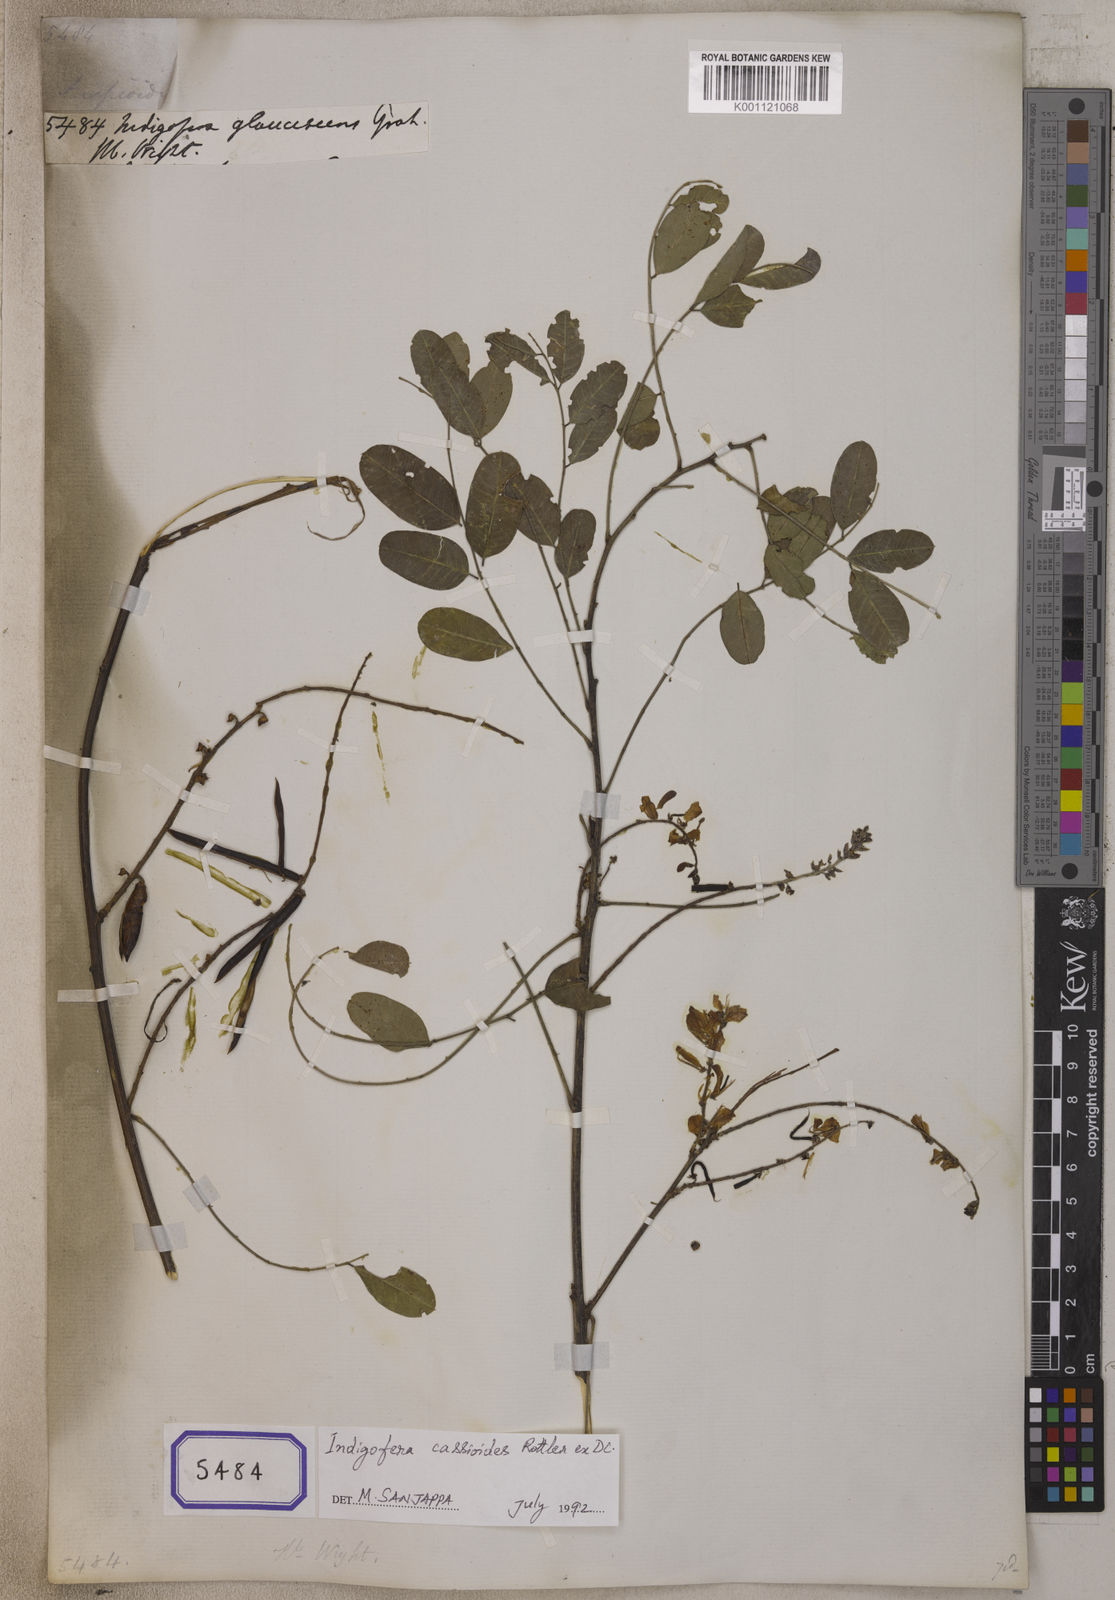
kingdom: Plantae
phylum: Tracheophyta
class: Magnoliopsida
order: Fabales
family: Fabaceae
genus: Indigofera
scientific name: Indigofera cassioides
